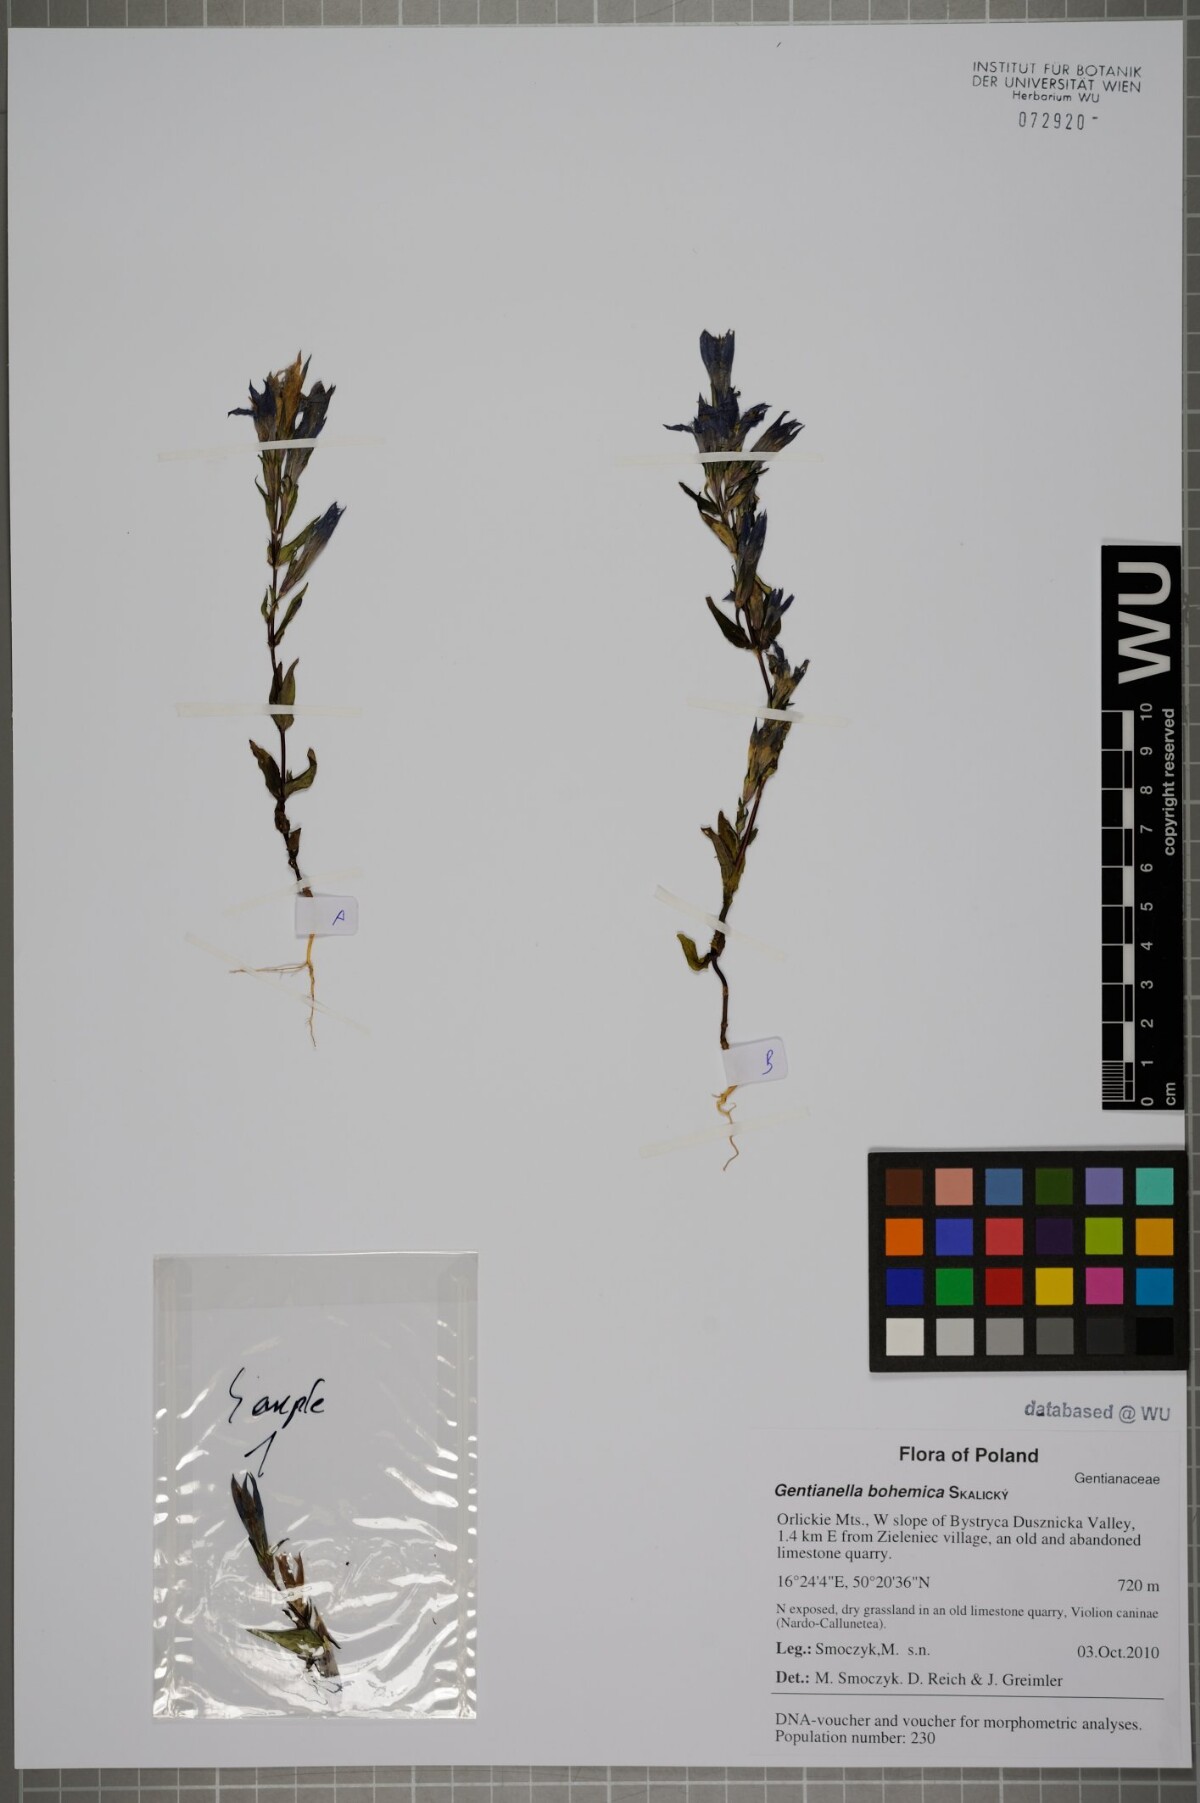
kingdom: Plantae
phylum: Tracheophyta
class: Magnoliopsida
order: Gentianales
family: Gentianaceae
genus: Gentianella
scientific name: Gentianella praecox
